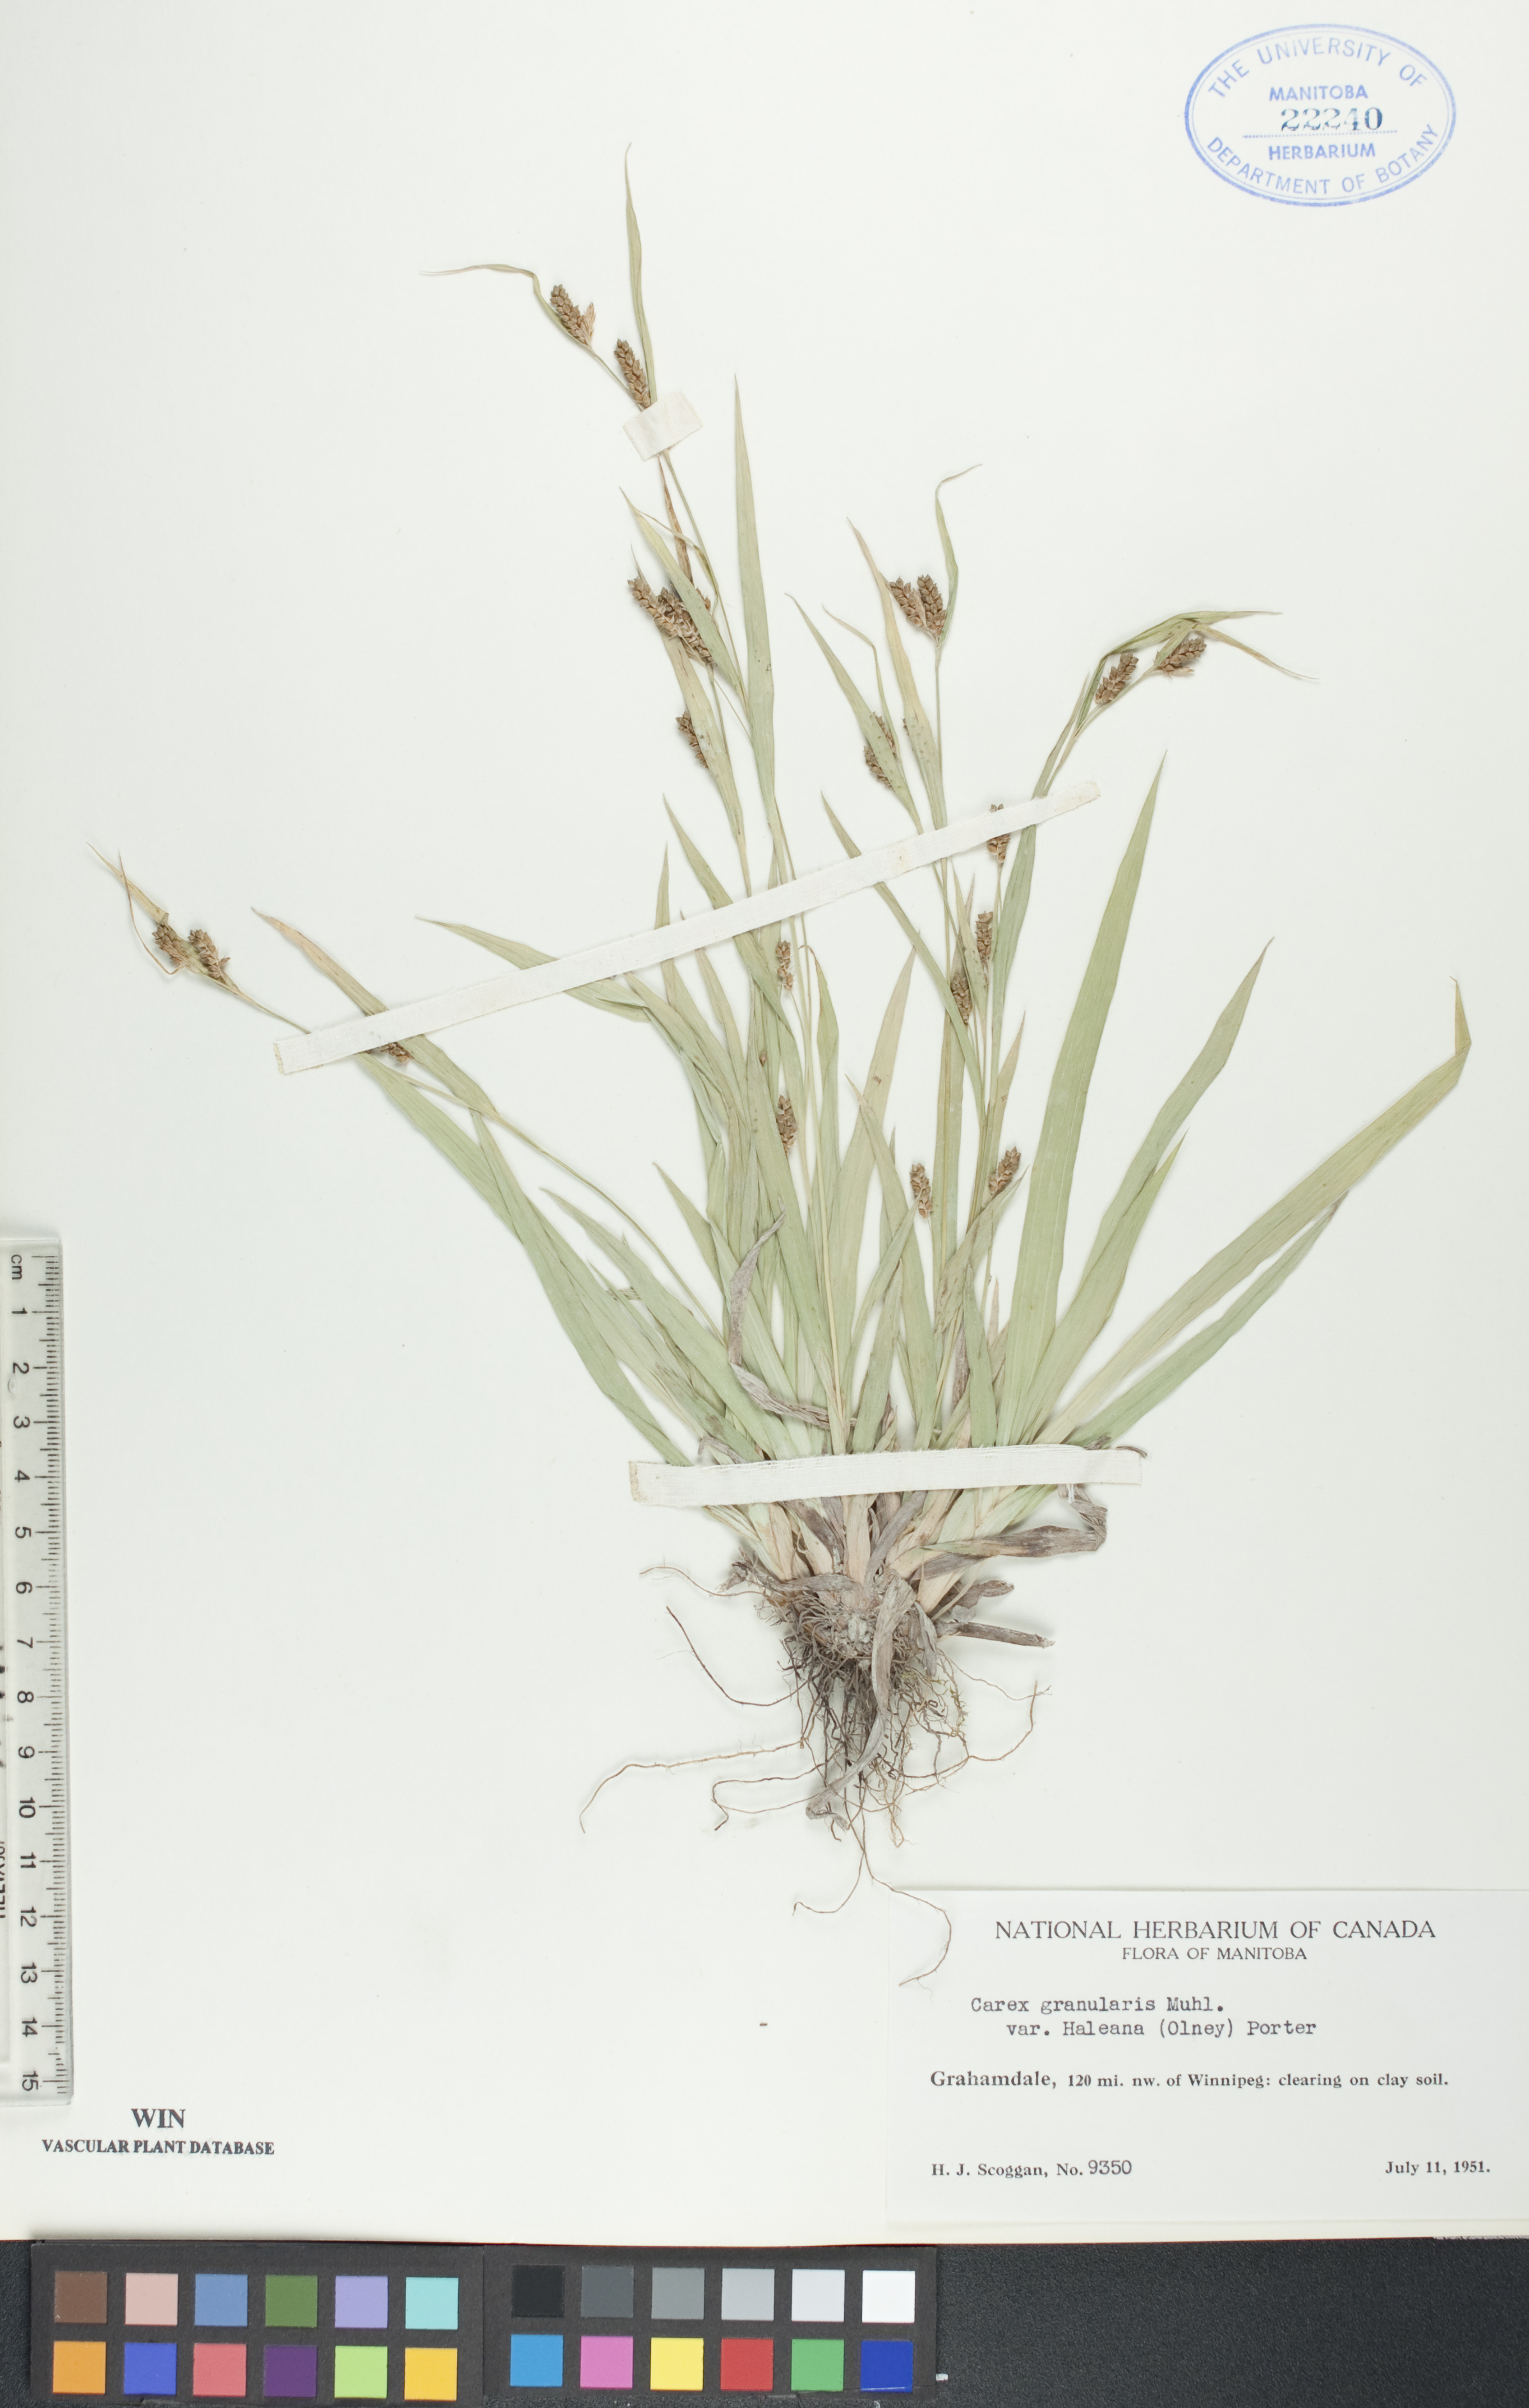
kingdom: Plantae
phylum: Tracheophyta
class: Liliopsida
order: Poales
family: Cyperaceae
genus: Carex
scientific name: Carex granularis
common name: Granular sedge
